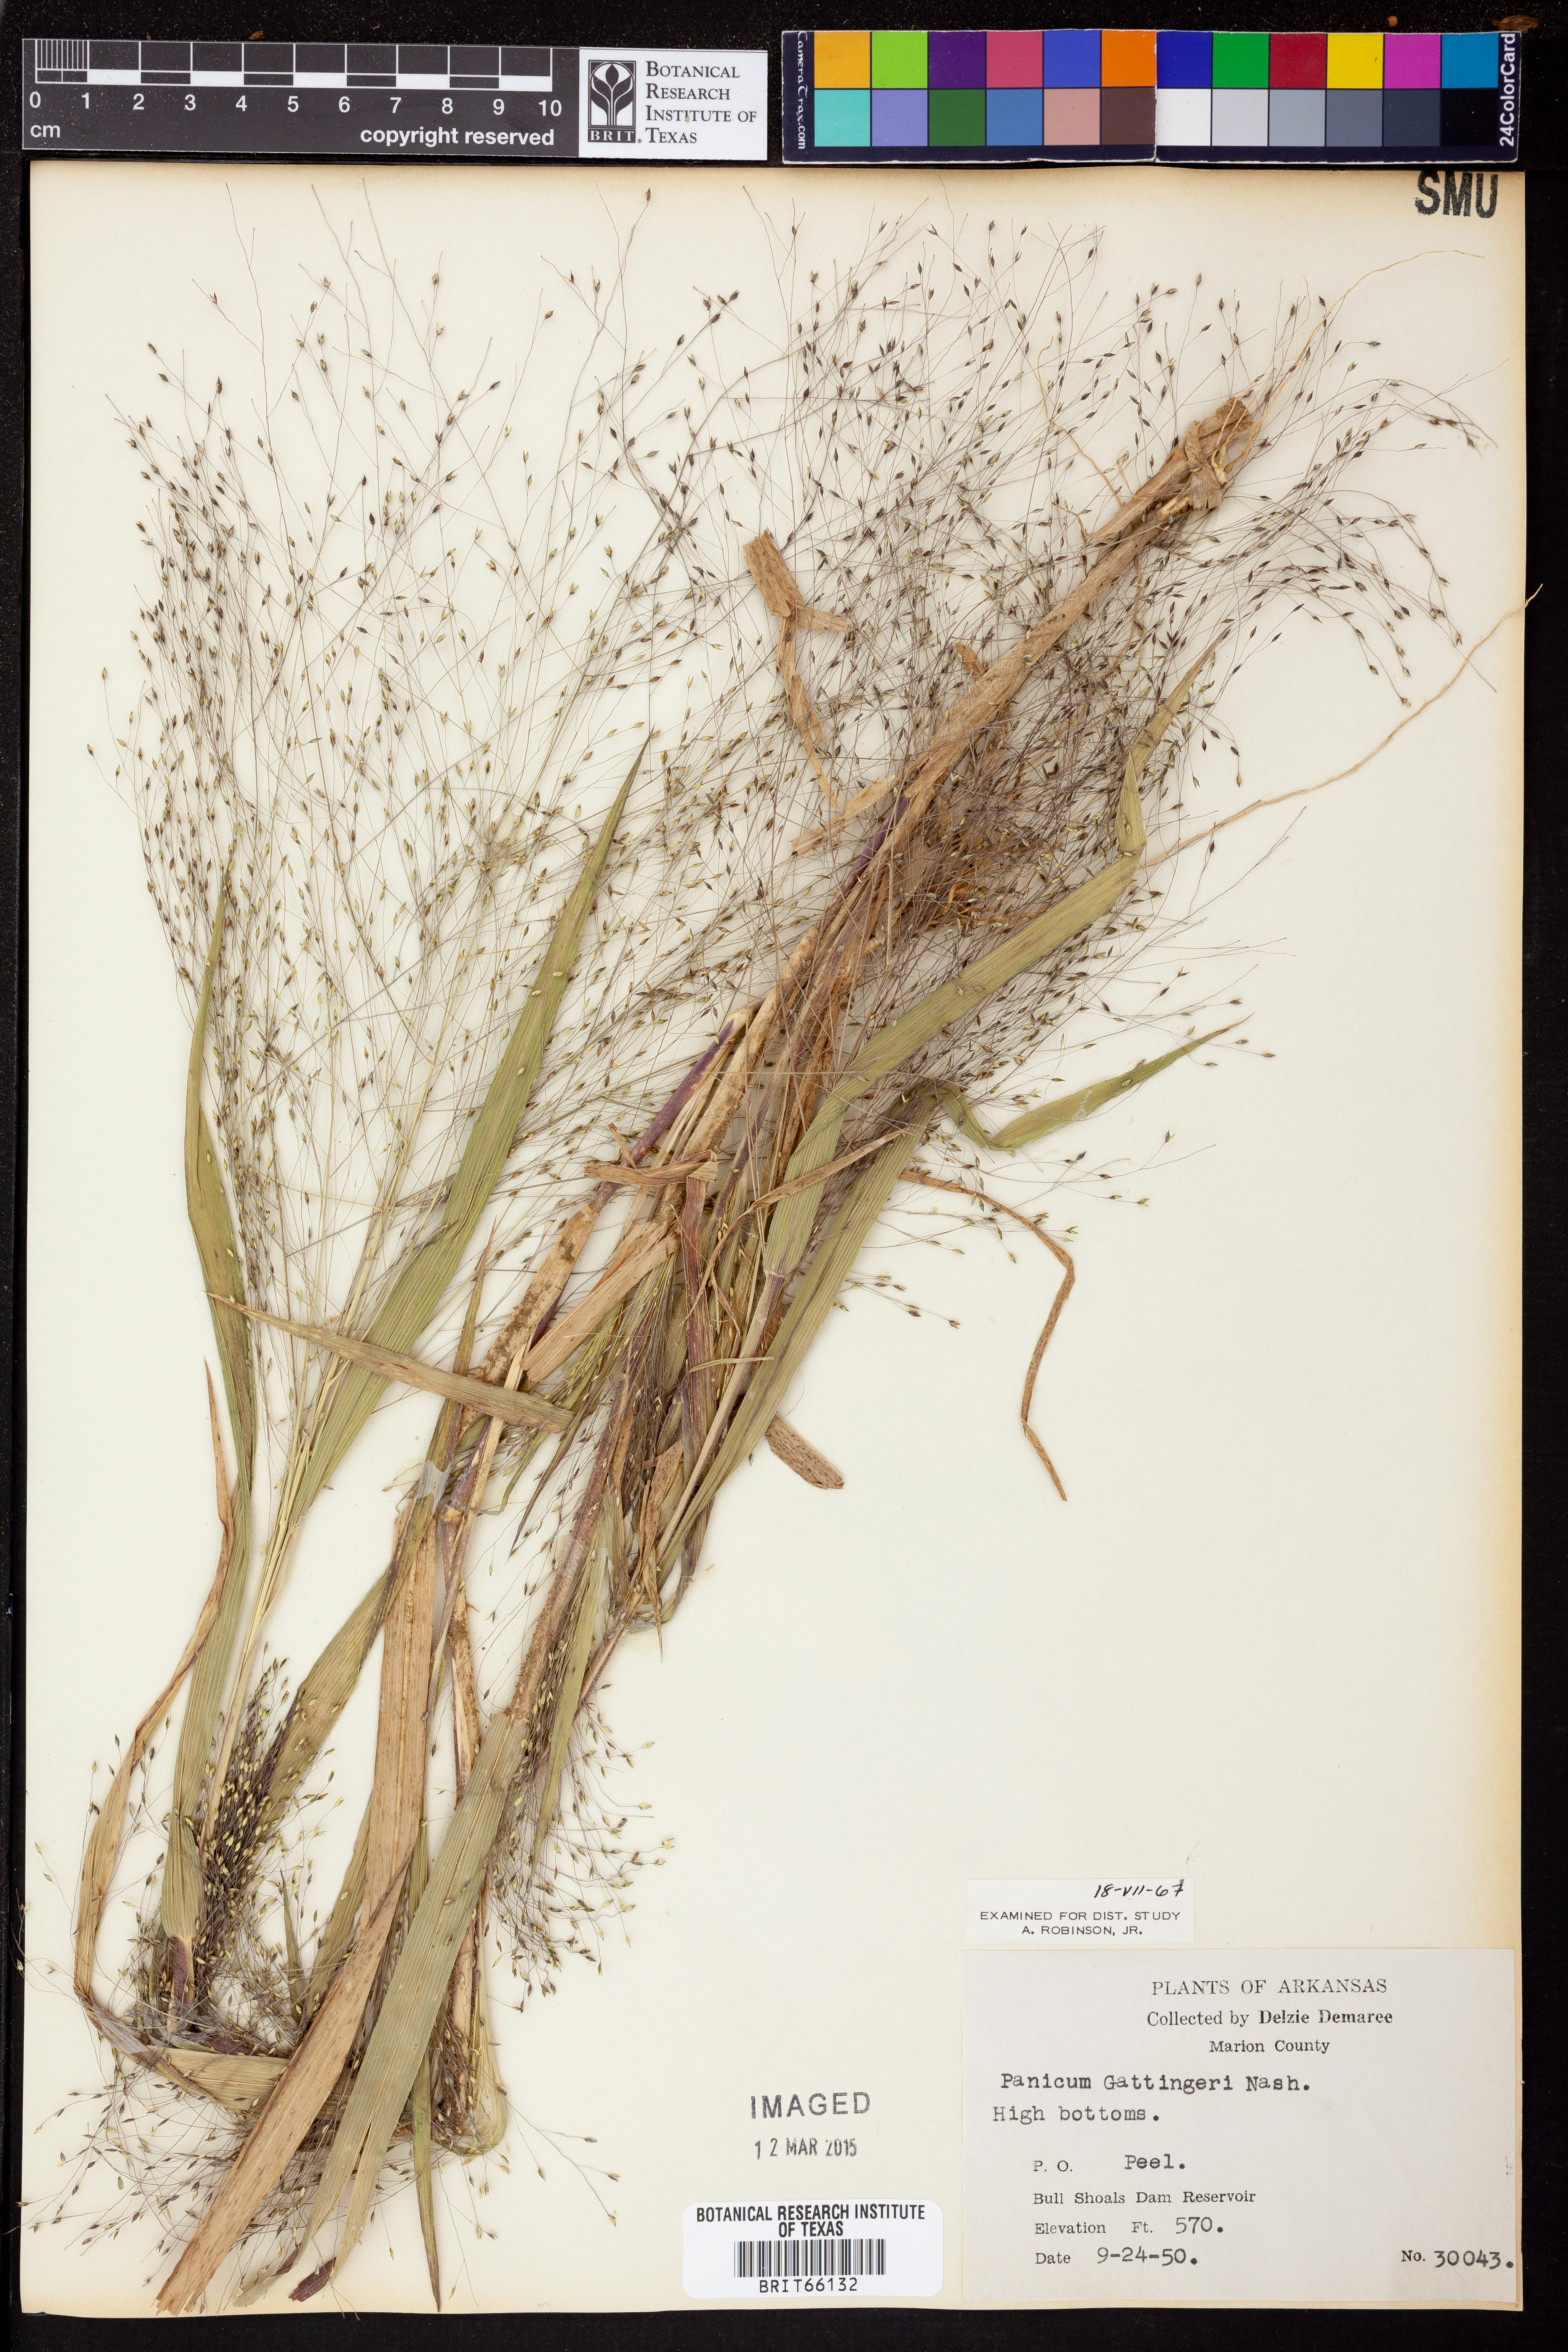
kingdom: Plantae
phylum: Tracheophyta
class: Liliopsida
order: Poales
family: Poaceae
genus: Panicum
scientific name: Panicum gattingeri
